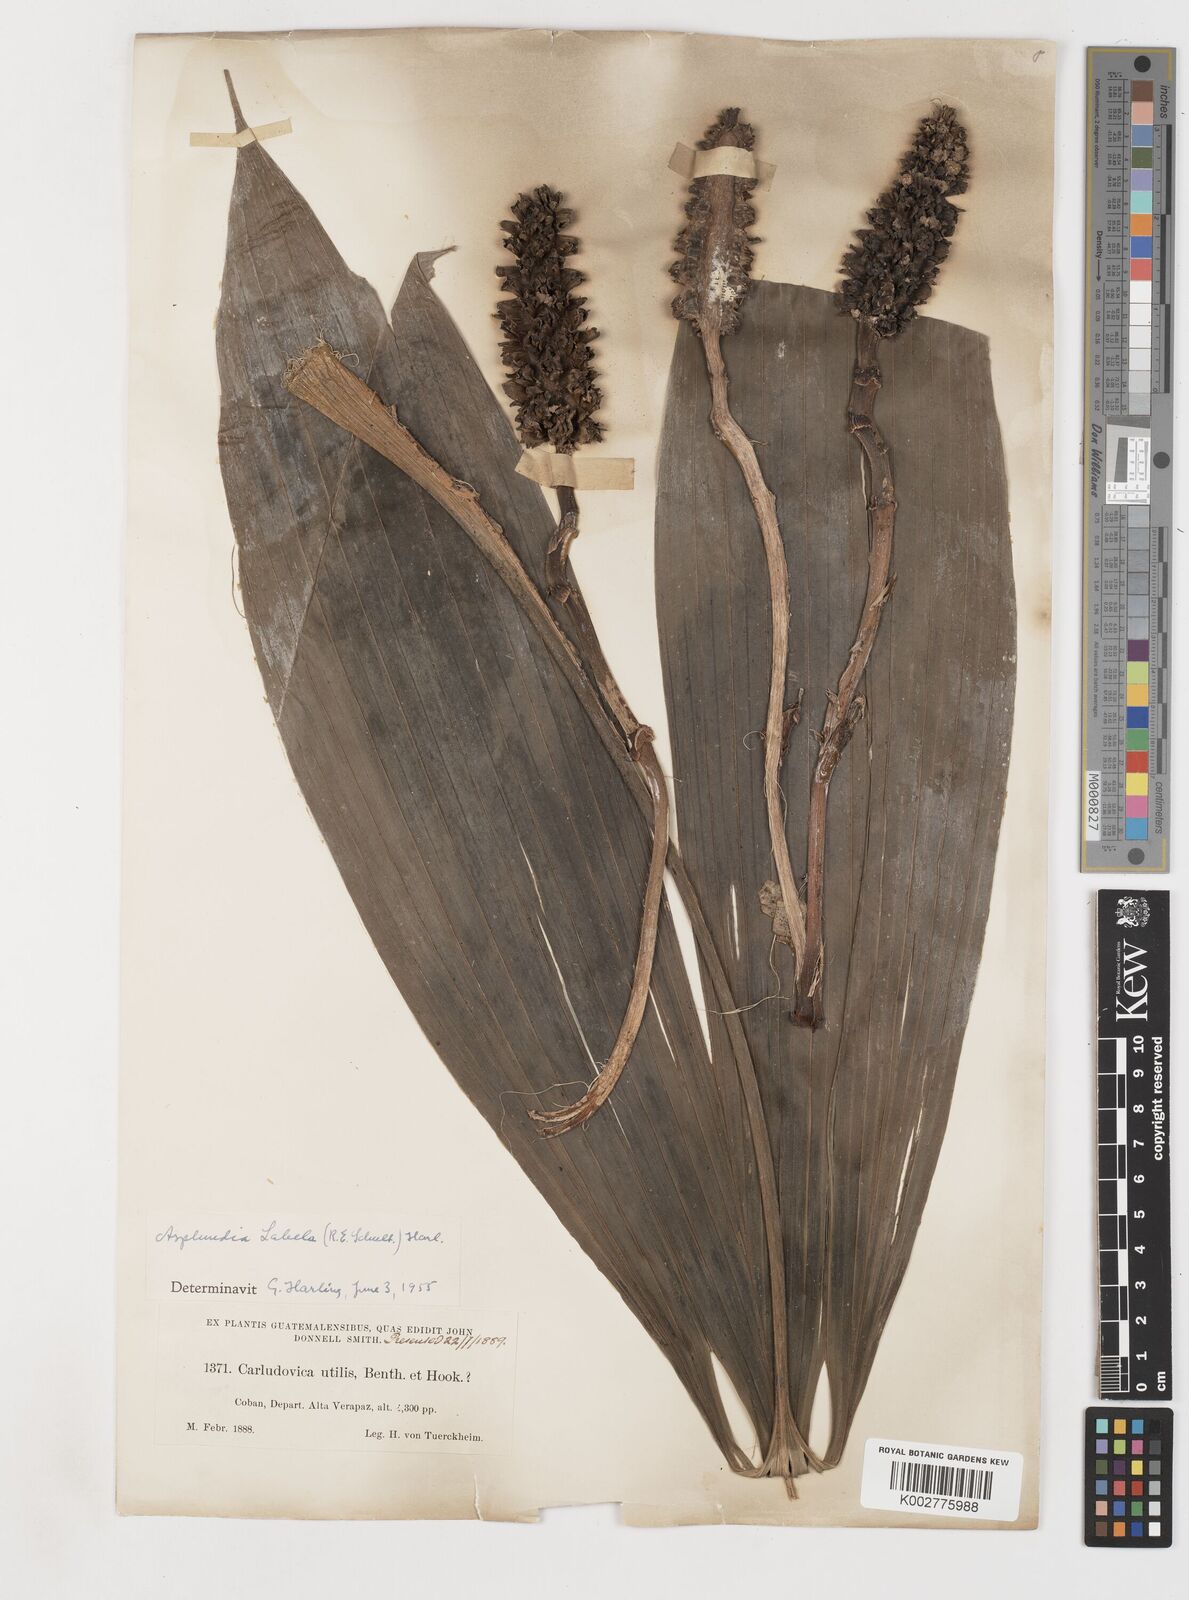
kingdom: Plantae
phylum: Tracheophyta
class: Liliopsida
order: Pandanales
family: Cyclanthaceae
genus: Asplundia
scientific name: Asplundia labela
